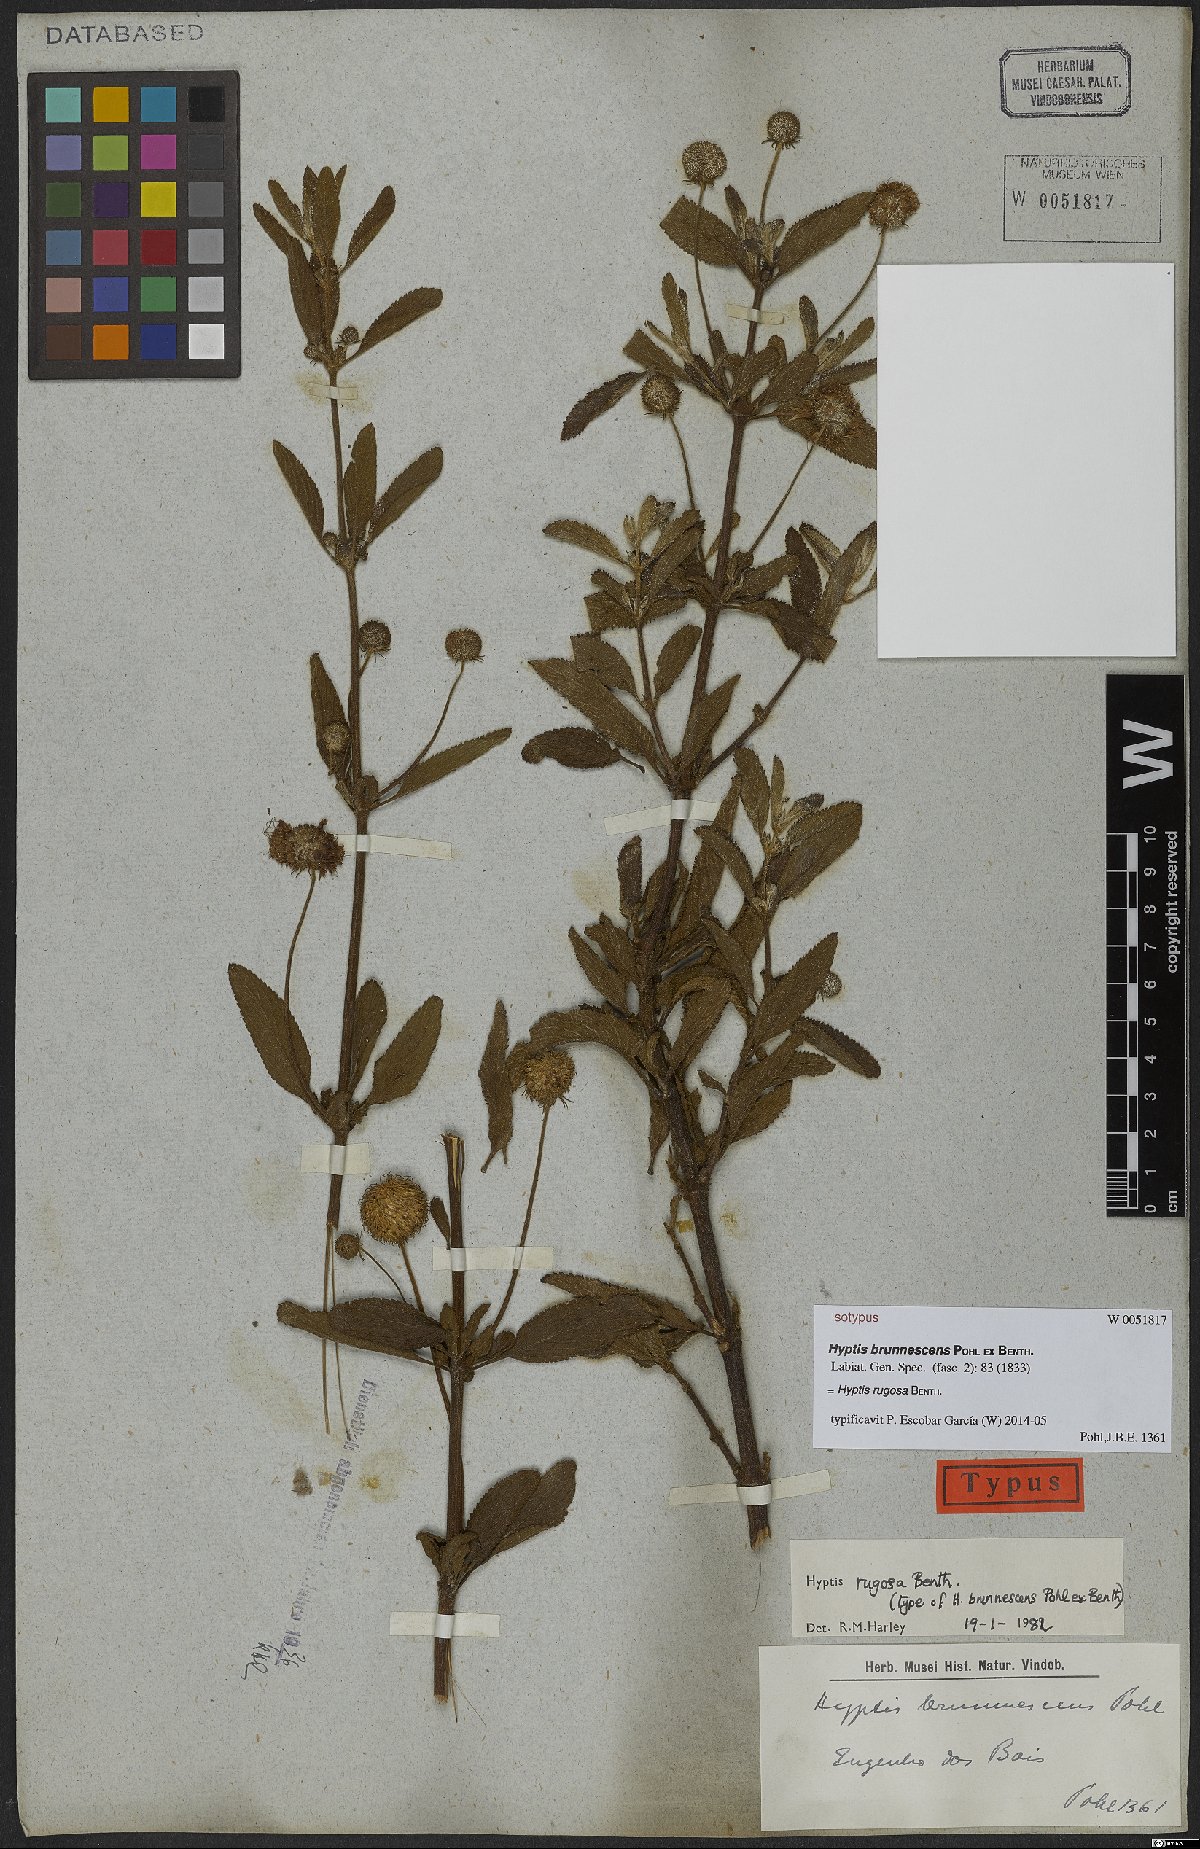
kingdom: Plantae
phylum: Tracheophyta
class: Magnoliopsida
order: Lamiales
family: Lamiaceae
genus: Cyanocephalus
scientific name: Cyanocephalus rugosus
